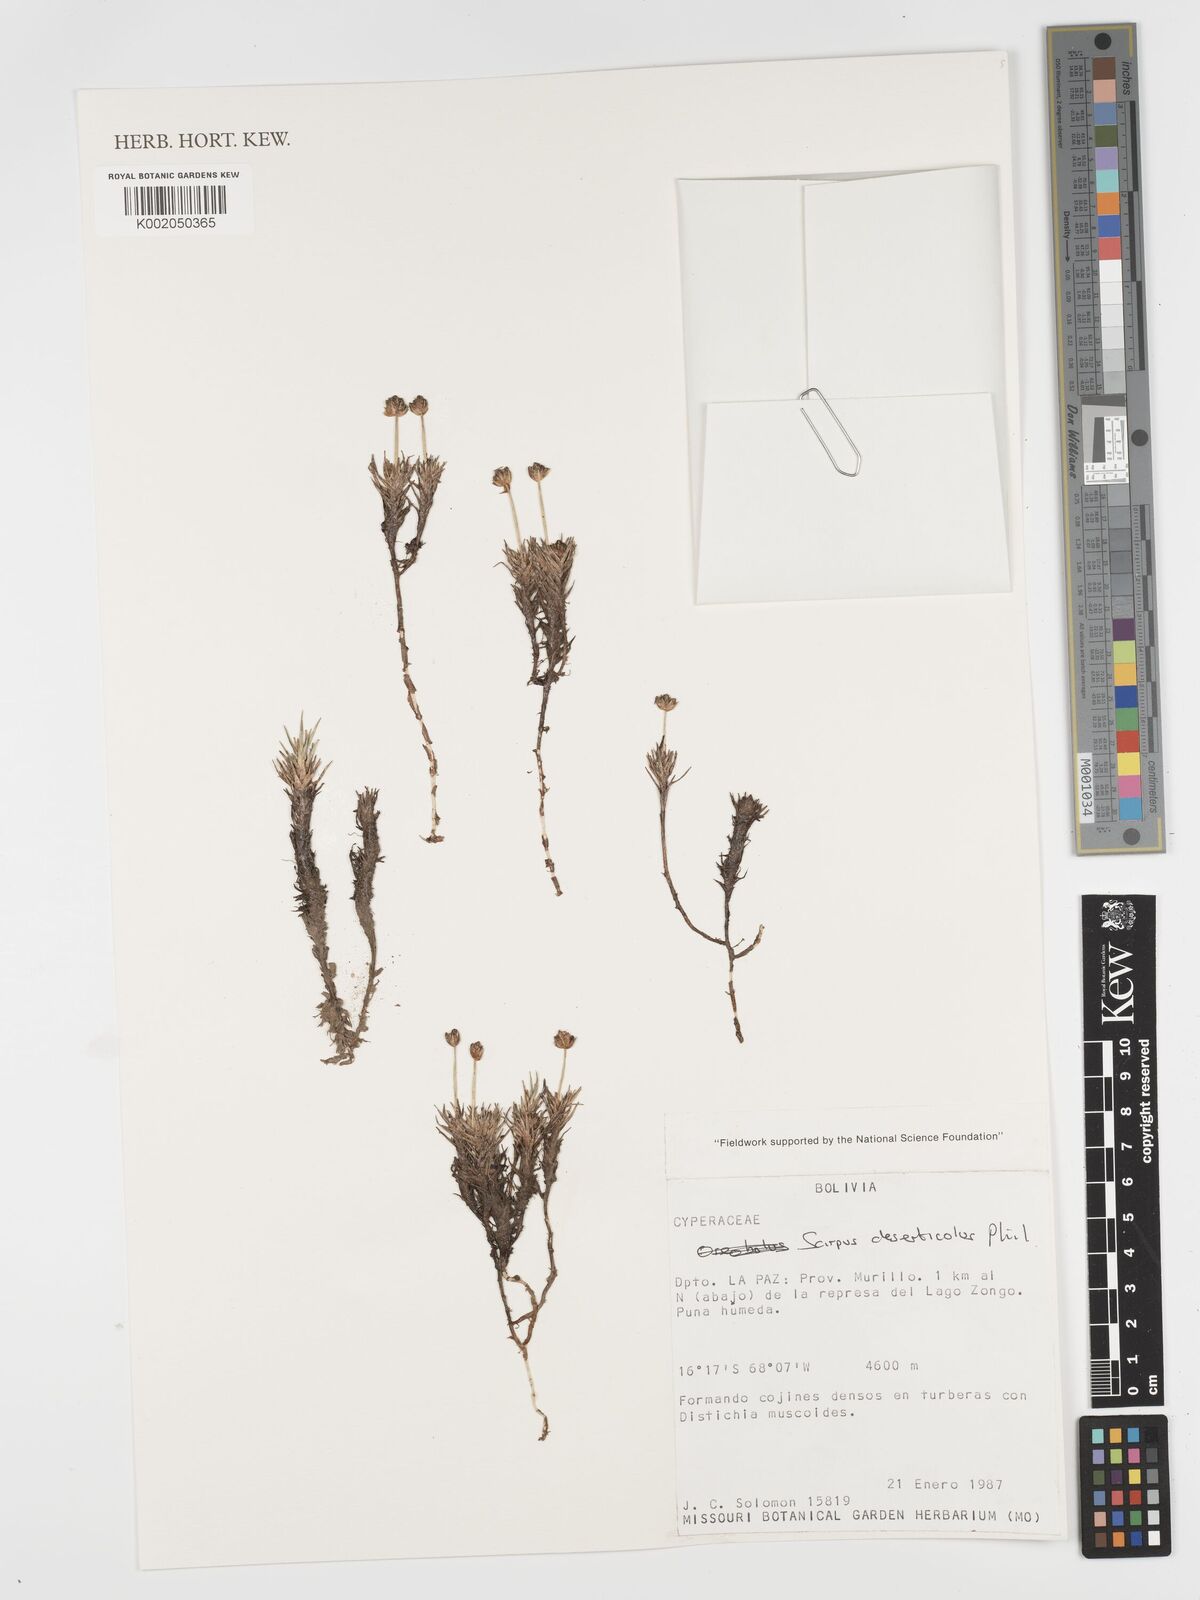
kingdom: Plantae
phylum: Tracheophyta
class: Liliopsida
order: Poales
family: Cyperaceae
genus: Phylloscirpus
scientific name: Phylloscirpus deserticola
